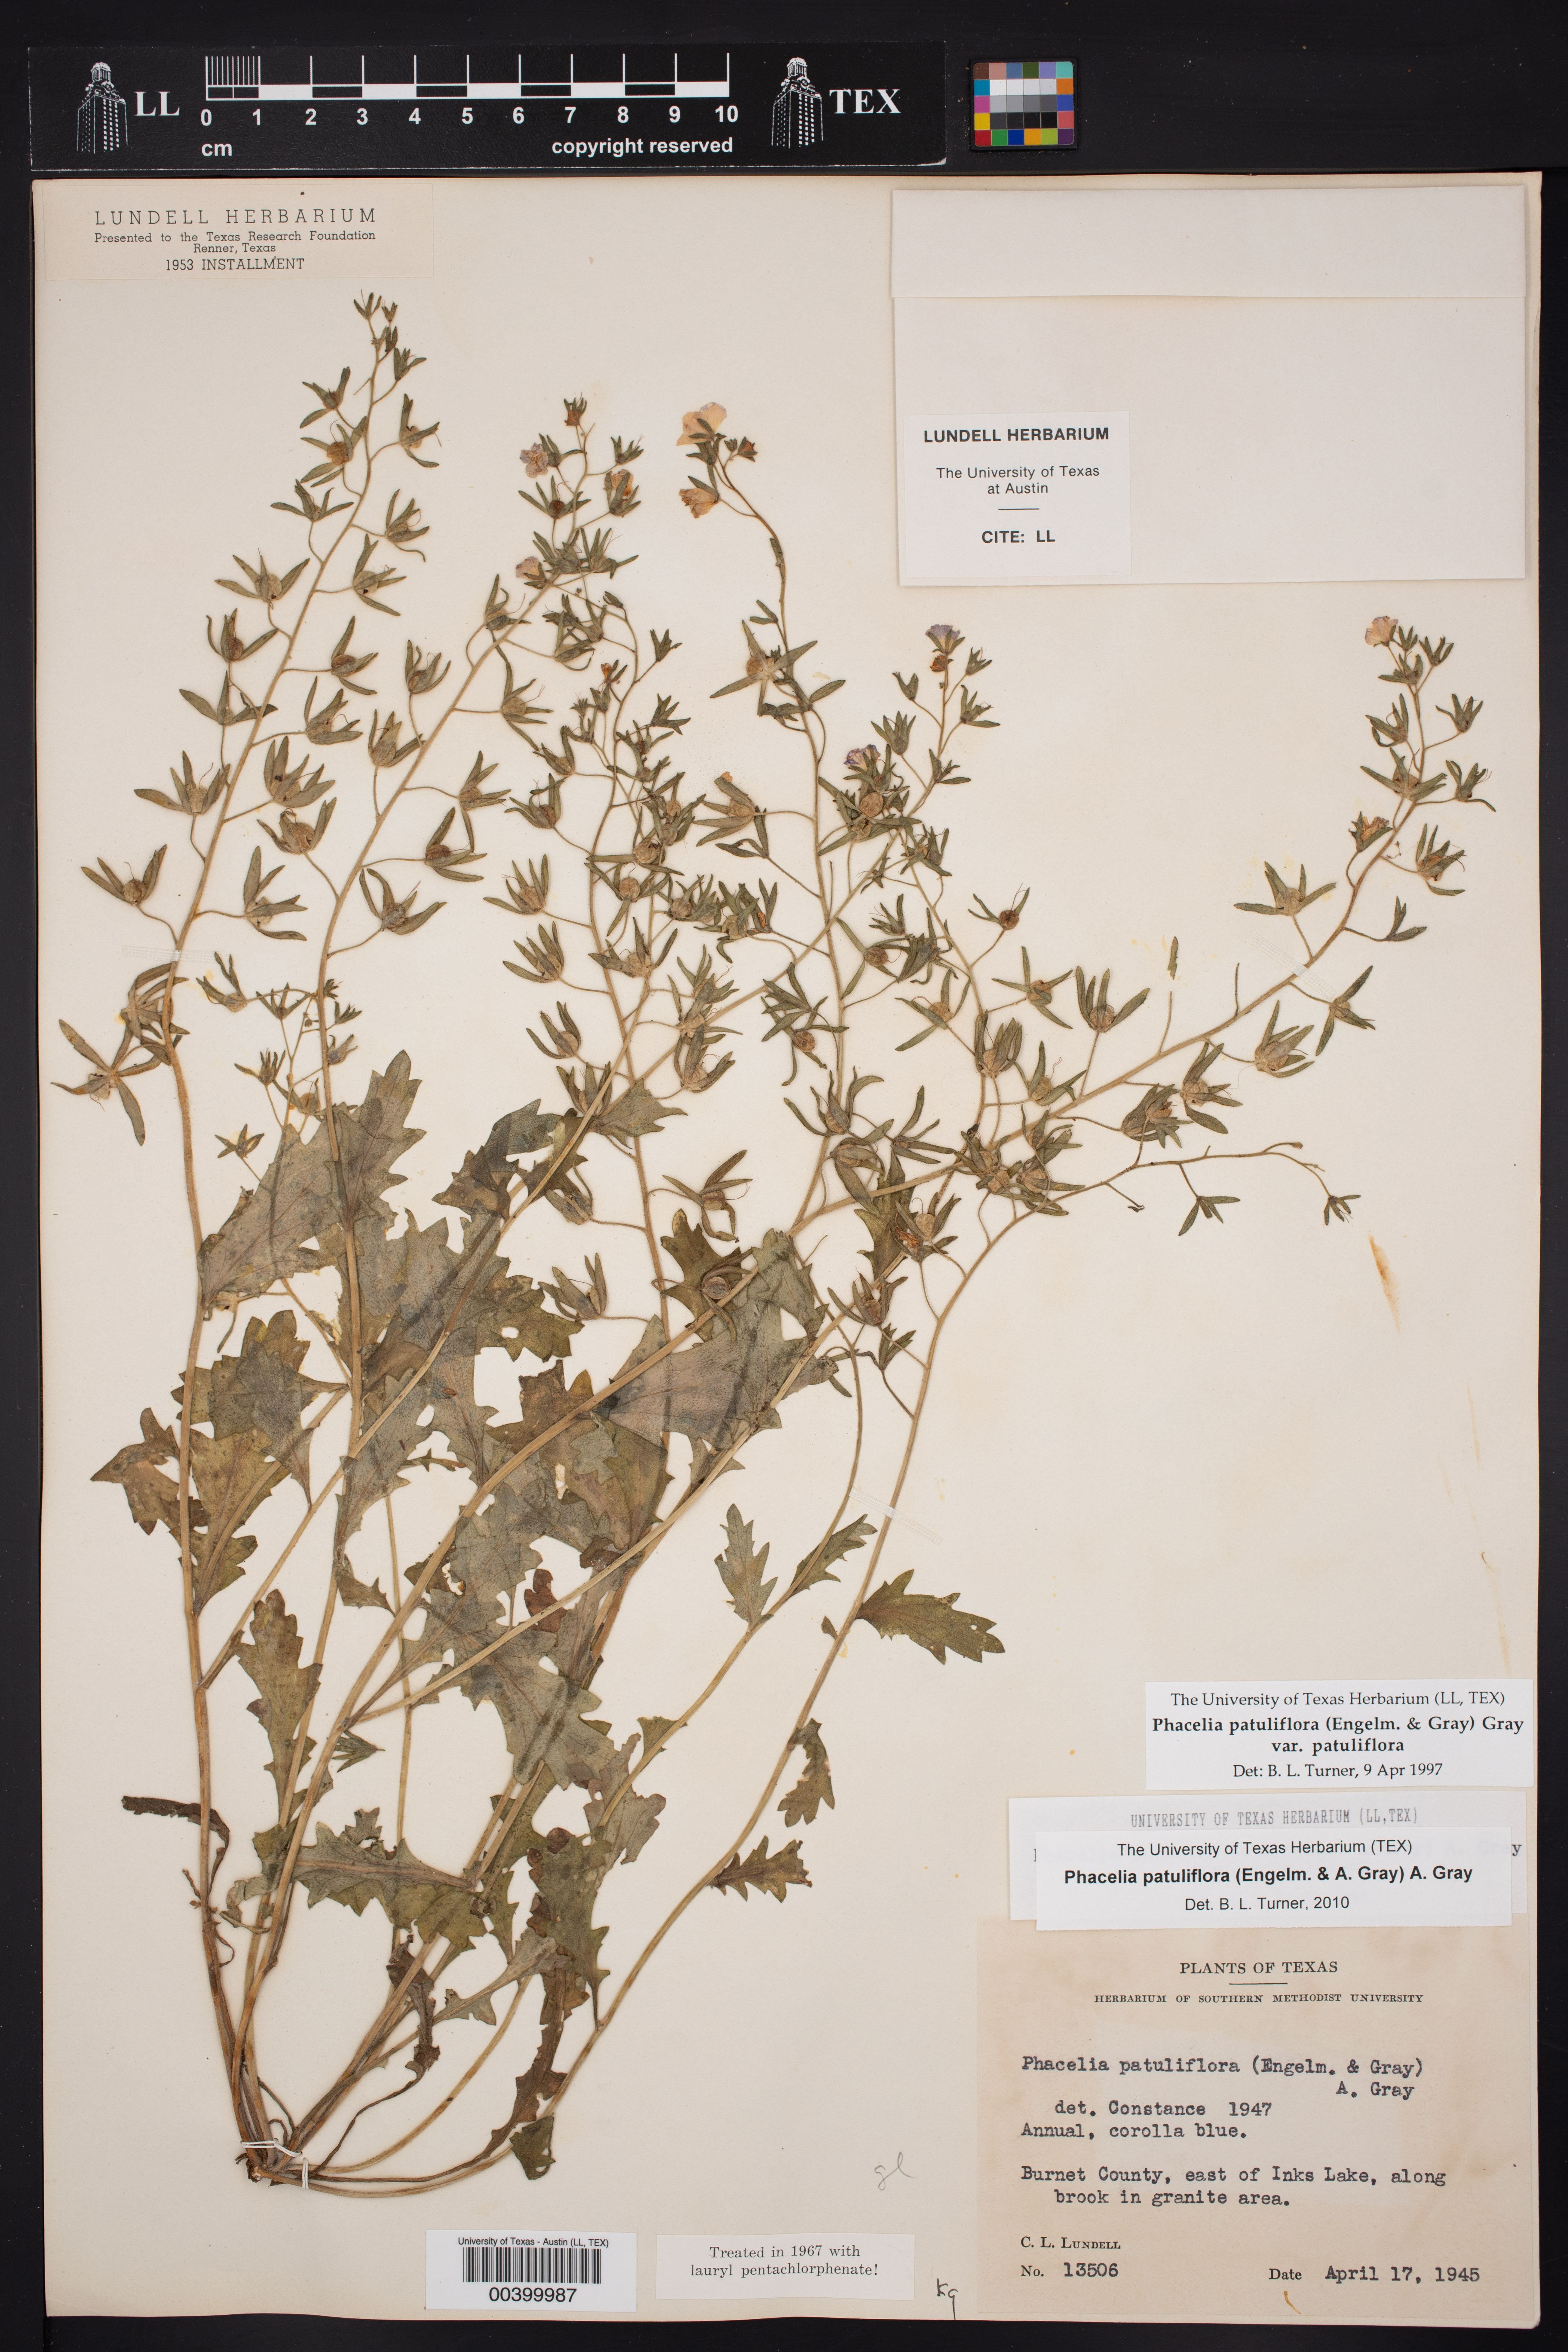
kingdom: Plantae
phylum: Tracheophyta
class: Magnoliopsida
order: Boraginales
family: Hydrophyllaceae
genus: Phacelia
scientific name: Phacelia patuliflora
